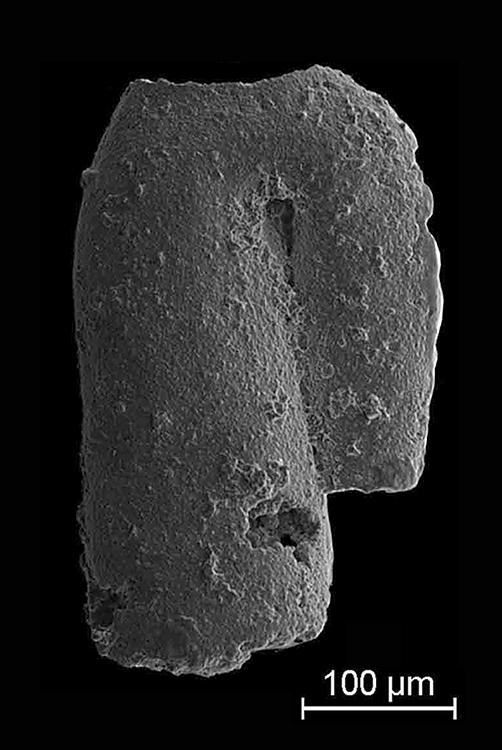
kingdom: Animalia
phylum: Mollusca
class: Rostroconchia
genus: Jinonicella
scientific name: Jinonicella kolebabai
